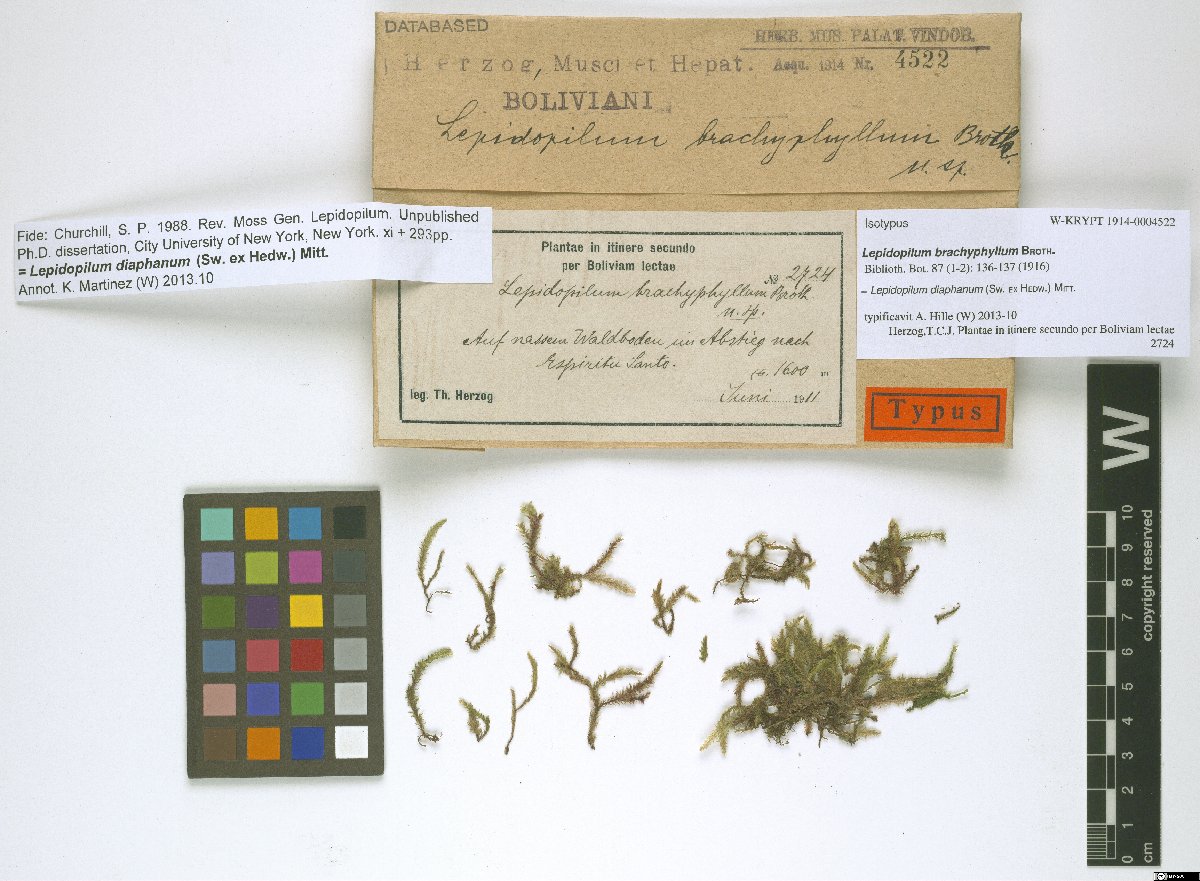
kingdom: Plantae
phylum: Bryophyta
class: Bryopsida
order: Hookeriales
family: Pilotrichaceae
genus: Lepidopilum
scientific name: Lepidopilum diaphanum
